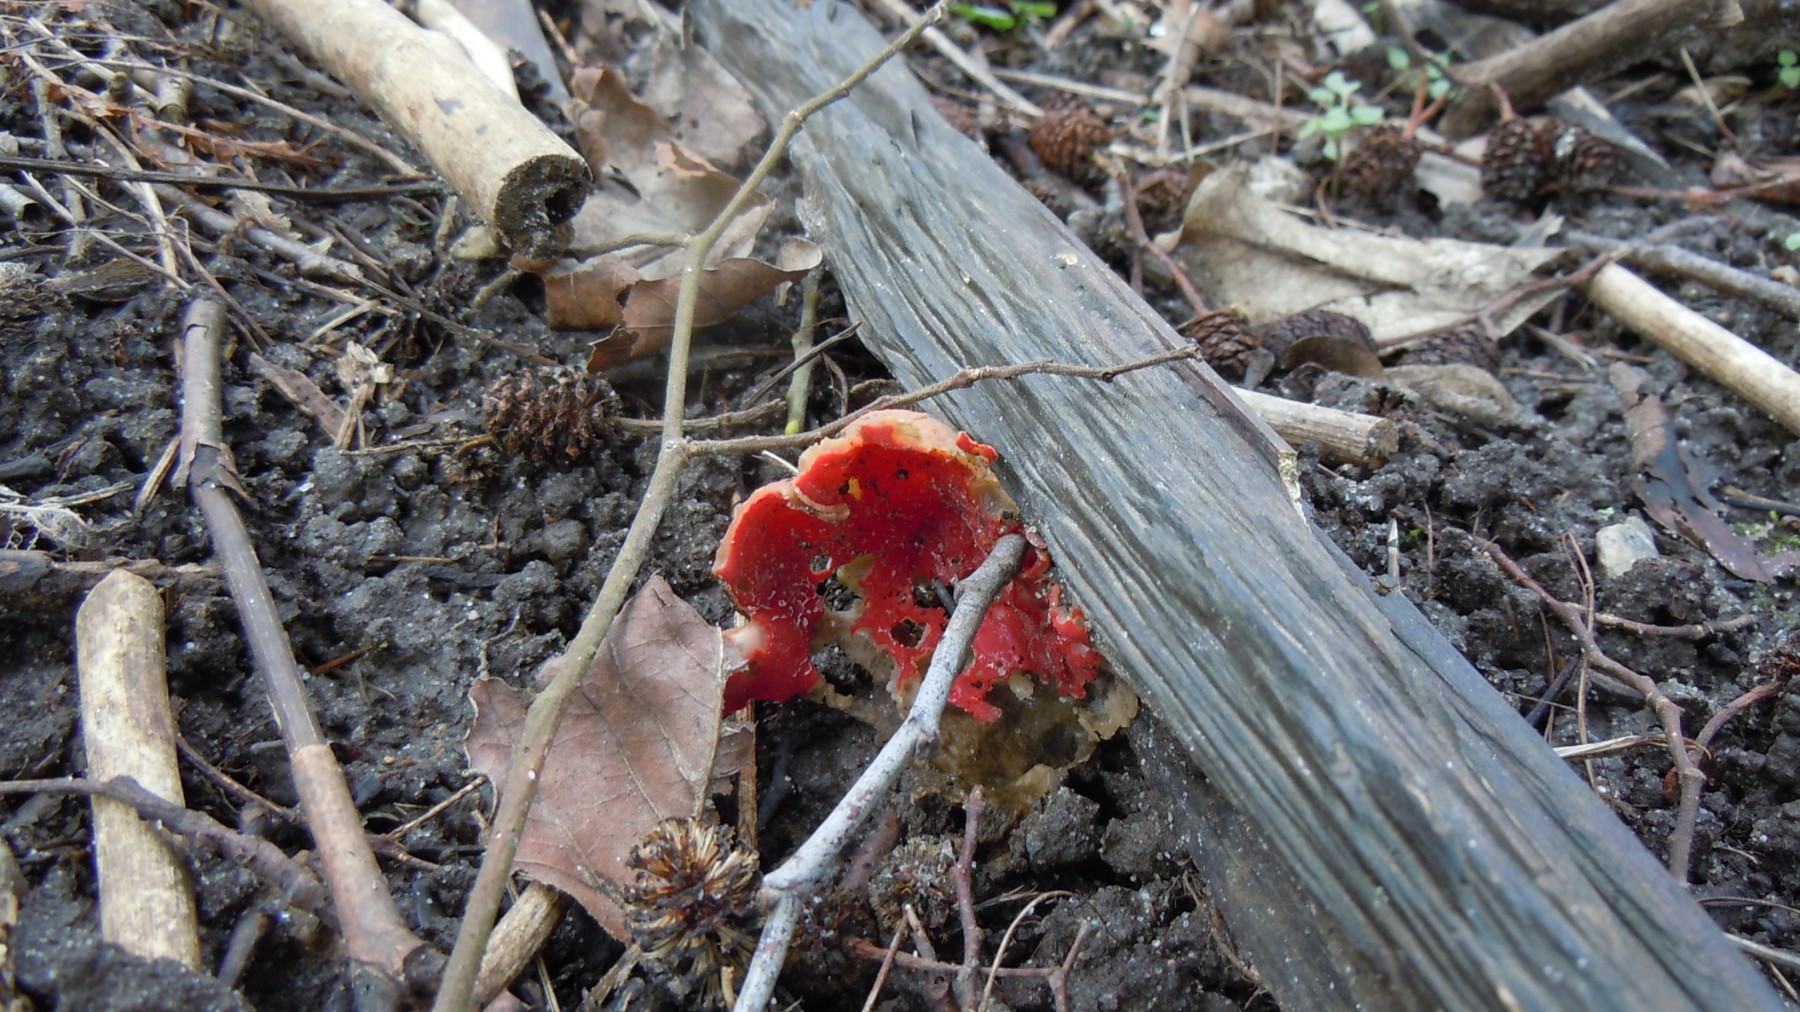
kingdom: Fungi
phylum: Ascomycota
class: Pezizomycetes
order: Pezizales
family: Sarcoscyphaceae
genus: Sarcoscypha
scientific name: Sarcoscypha austriaca
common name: krølhåret pragtbæger
